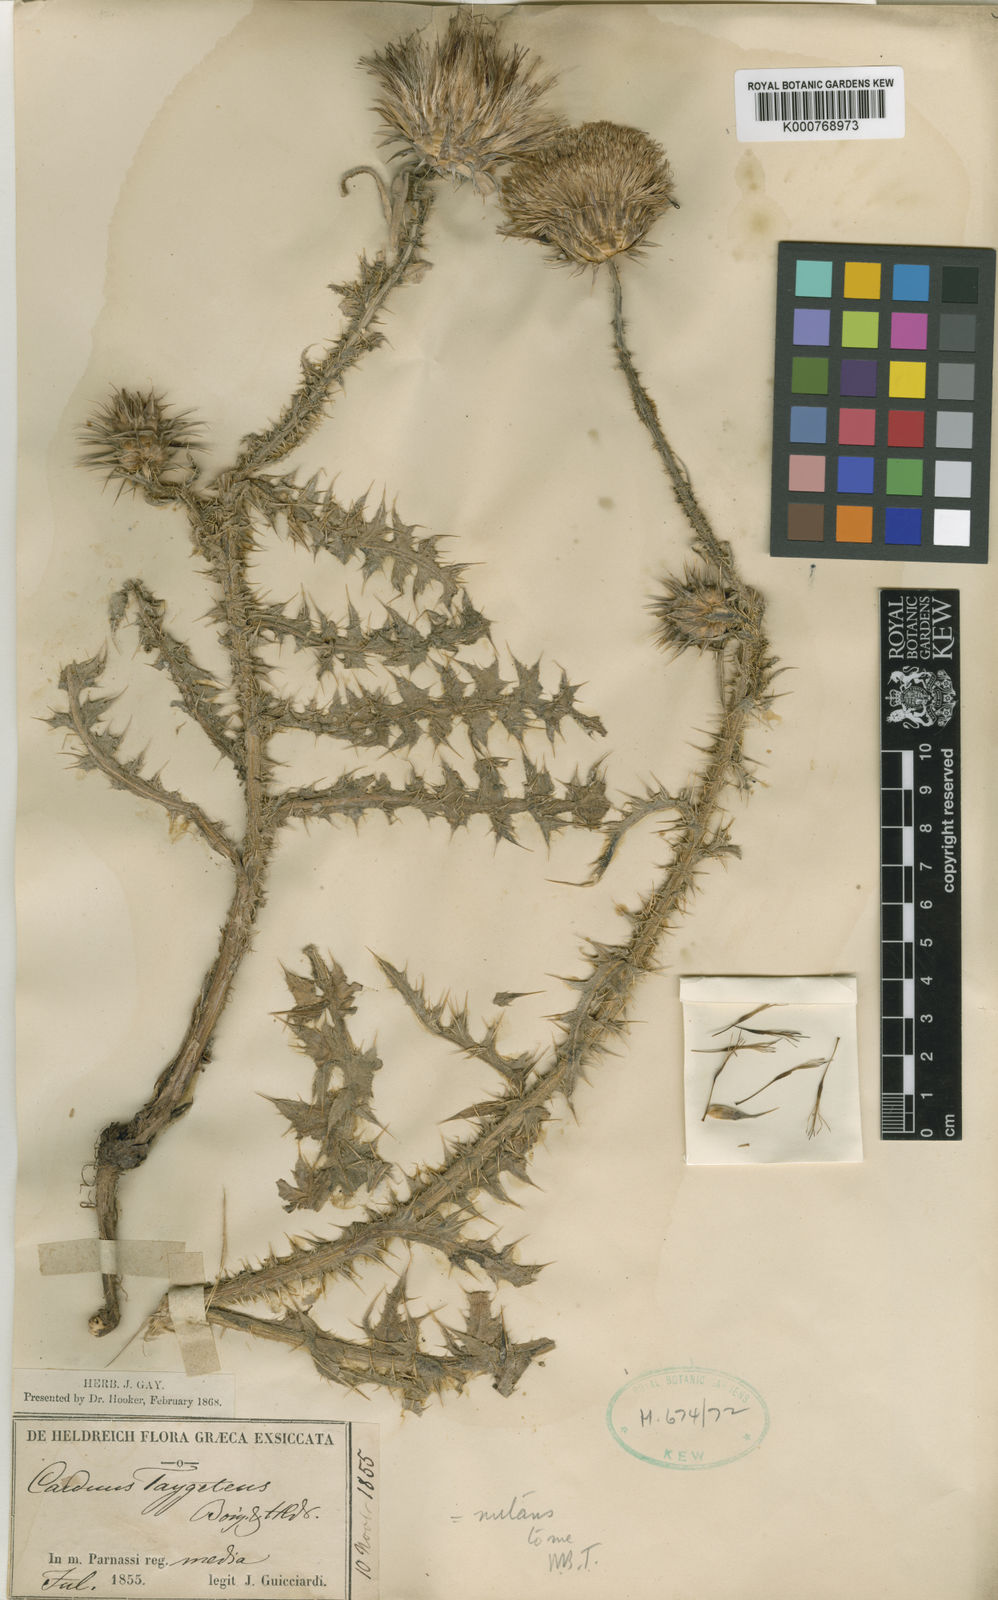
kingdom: Plantae
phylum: Tracheophyta
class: Magnoliopsida
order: Asterales
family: Asteraceae
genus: Carduus
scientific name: Carduus nutans
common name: Musk thistle
